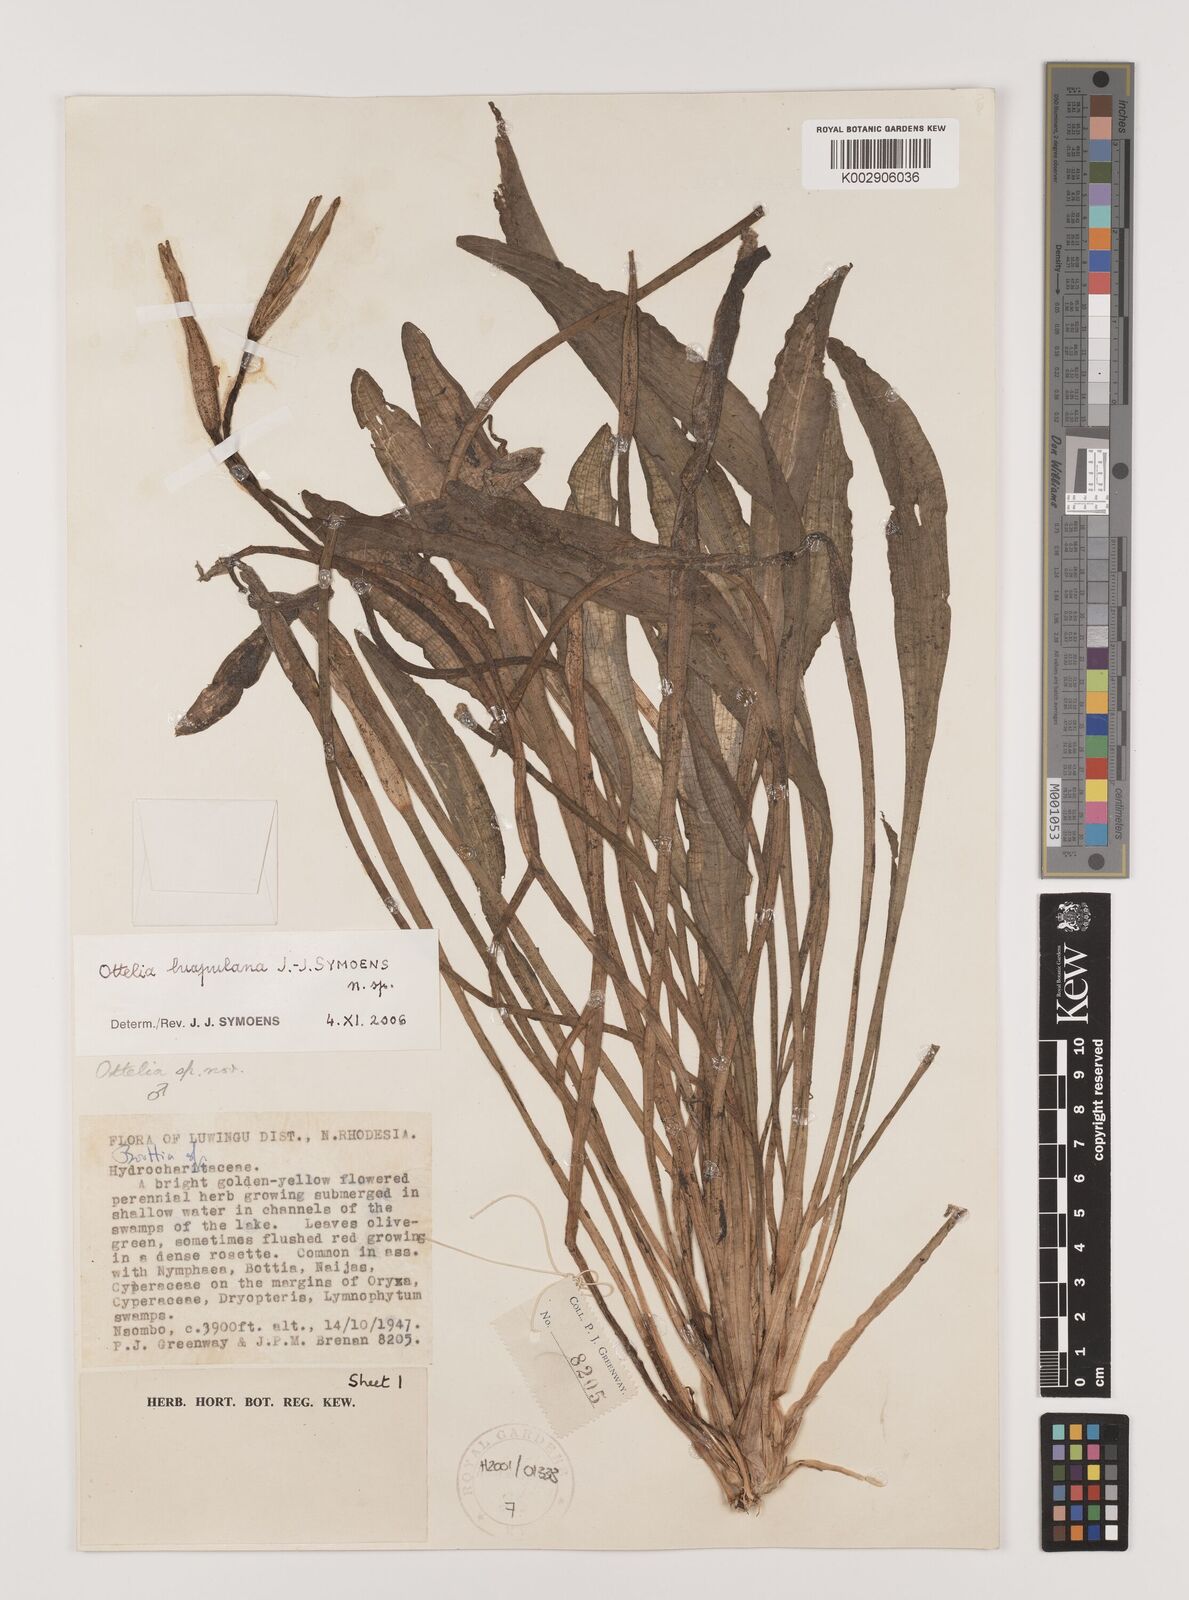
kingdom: Plantae
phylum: Tracheophyta
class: Liliopsida
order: Alismatales
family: Hydrocharitaceae
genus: Ottelia
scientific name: Ottelia obtusifolia
